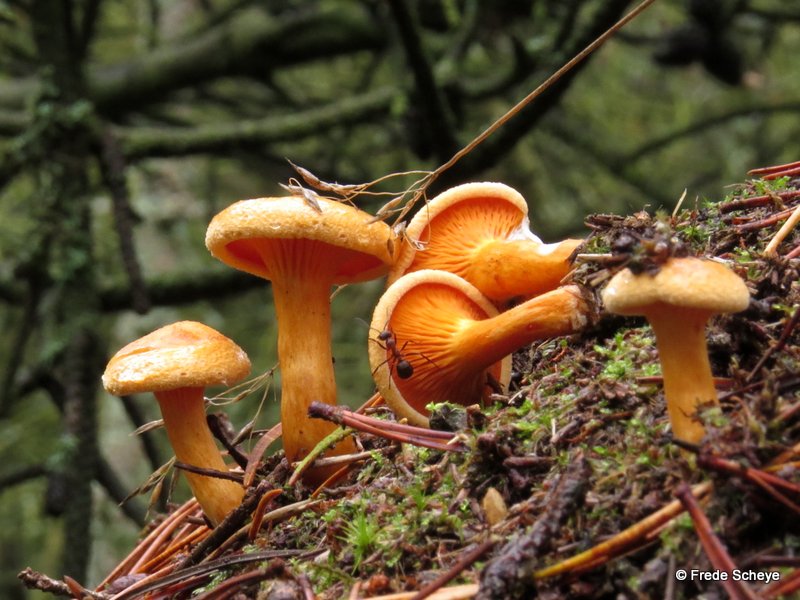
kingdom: Fungi
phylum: Basidiomycota
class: Agaricomycetes
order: Boletales
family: Hygrophoropsidaceae
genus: Hygrophoropsis
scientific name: Hygrophoropsis aurantiaca
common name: almindelig orangekantarel
